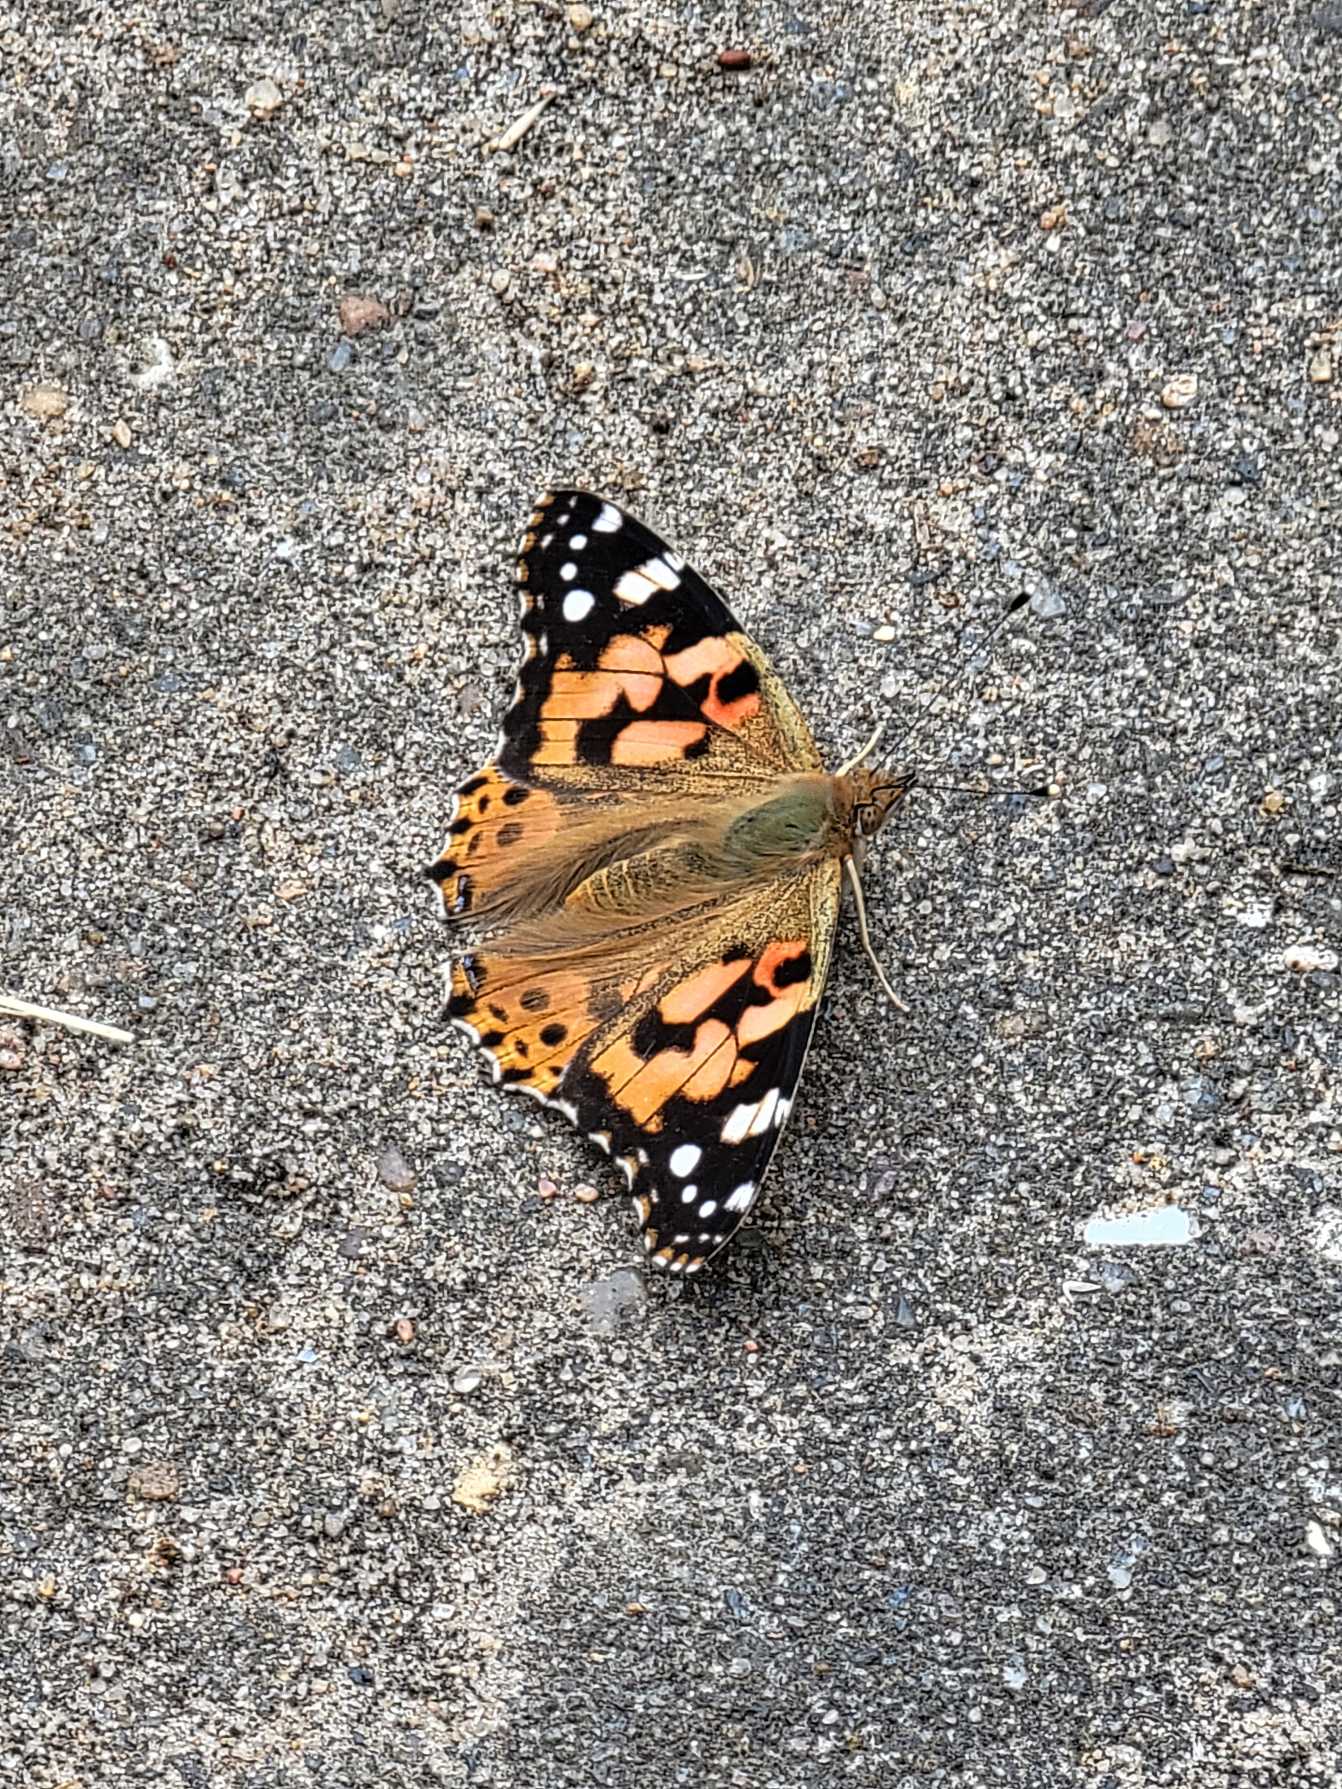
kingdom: Animalia
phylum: Arthropoda
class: Insecta
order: Lepidoptera
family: Nymphalidae
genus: Vanessa
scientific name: Vanessa cardui
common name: Tidselsommerfugl
